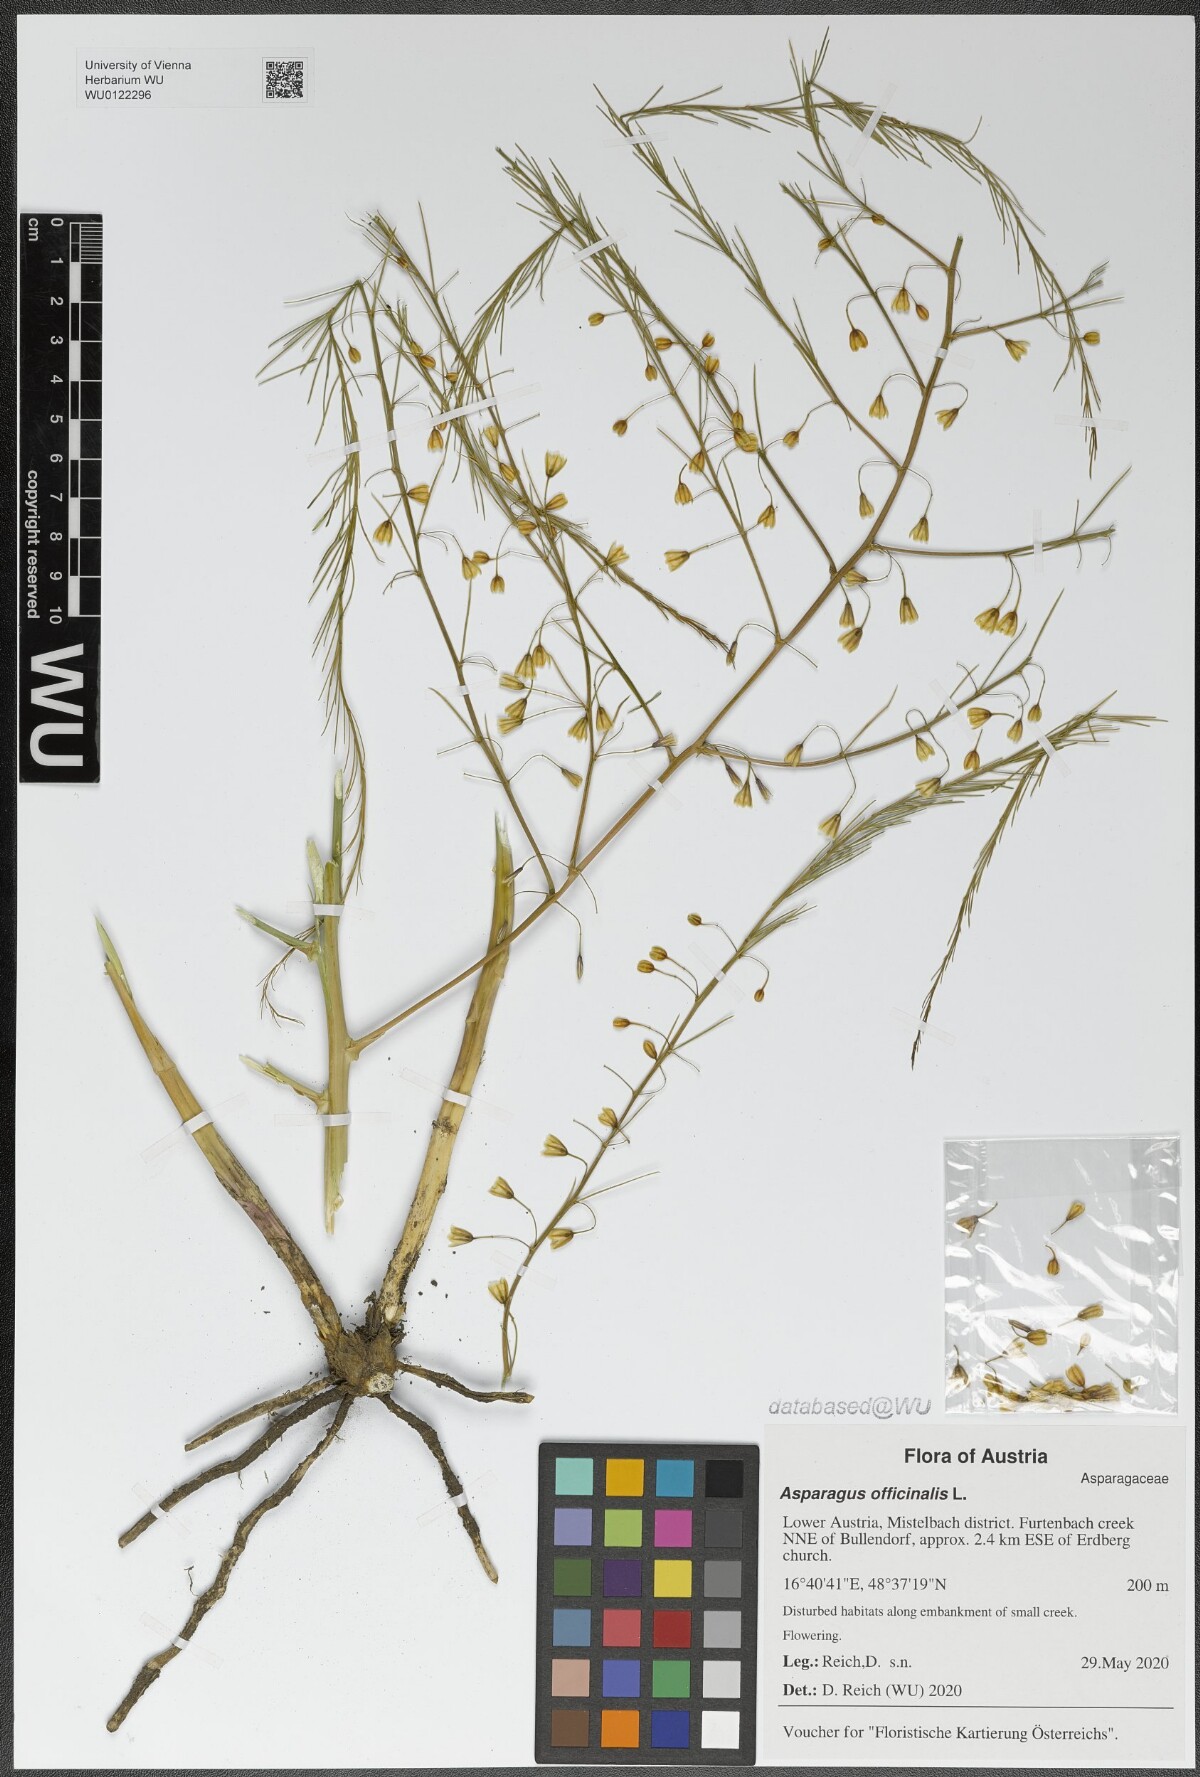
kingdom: Plantae
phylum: Tracheophyta
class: Liliopsida
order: Asparagales
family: Asparagaceae
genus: Asparagus
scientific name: Asparagus officinalis
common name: Garden asparagus
